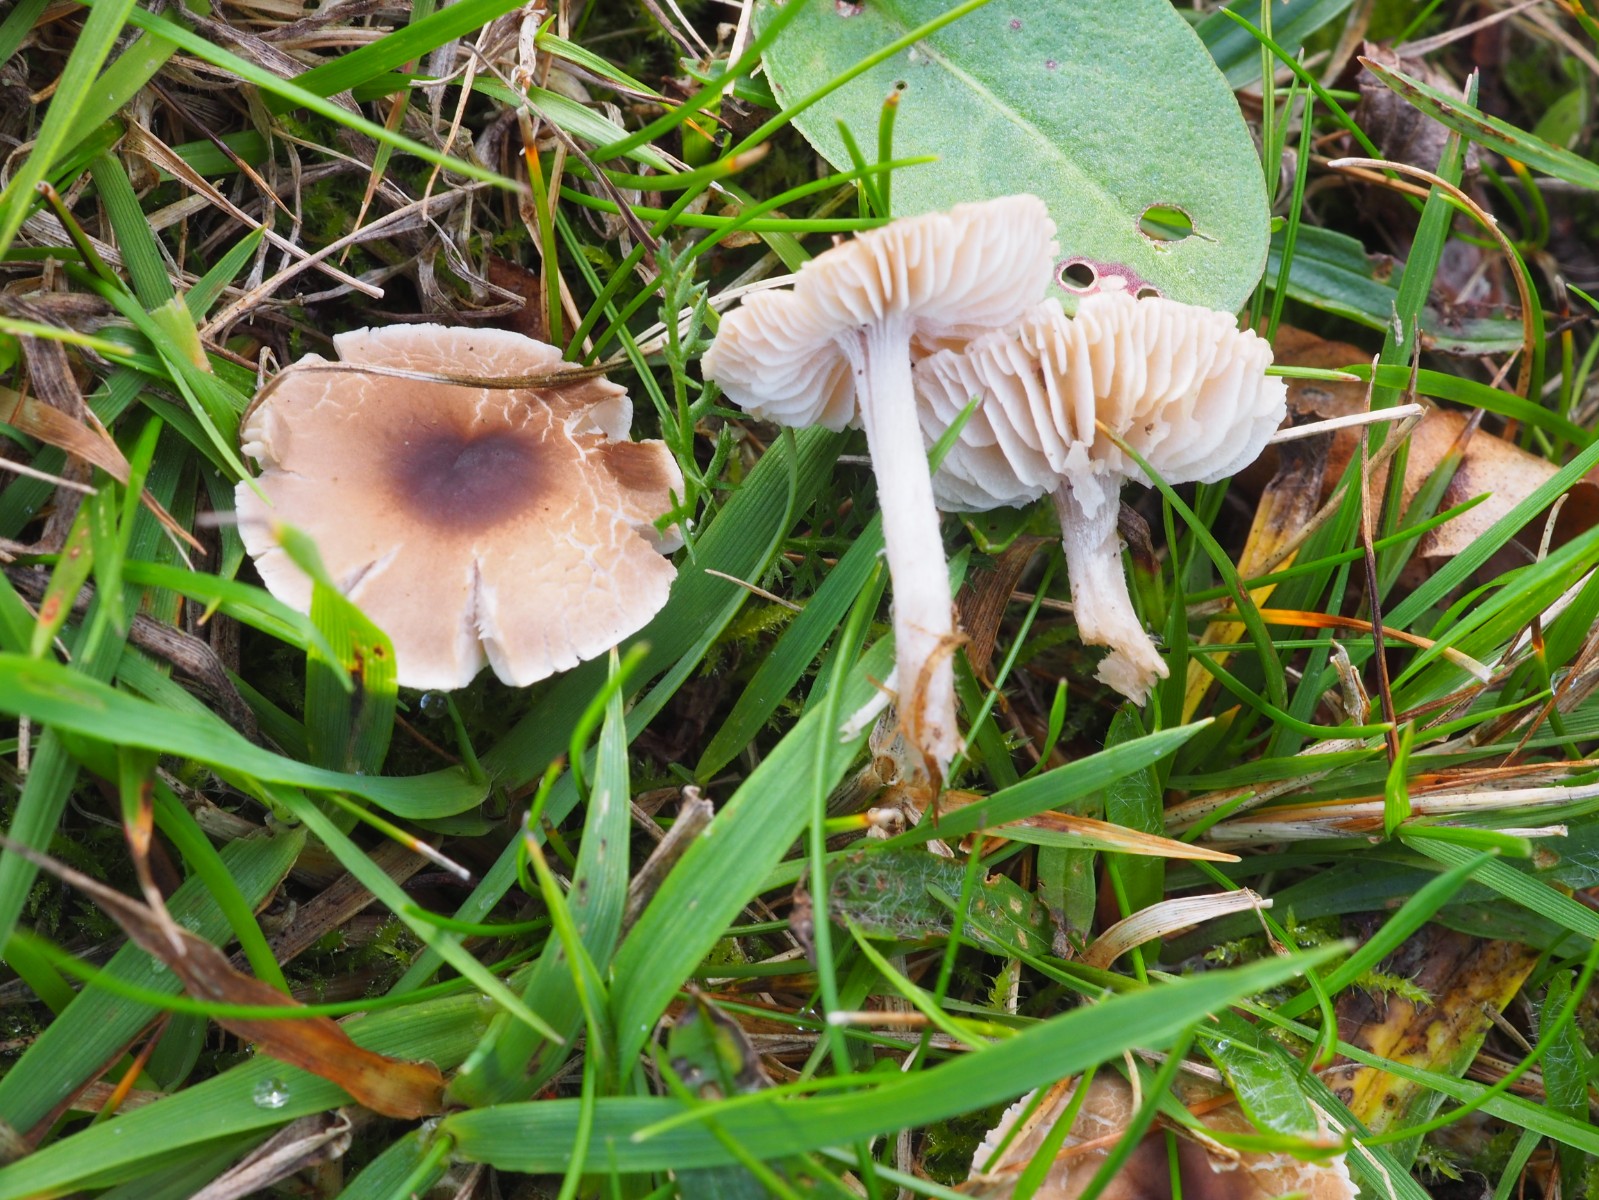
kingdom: Fungi
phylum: Basidiomycota
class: Agaricomycetes
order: Agaricales
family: Tricholomataceae
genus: Dermoloma
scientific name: Dermoloma cuneifolium
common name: eng-nonnehat
